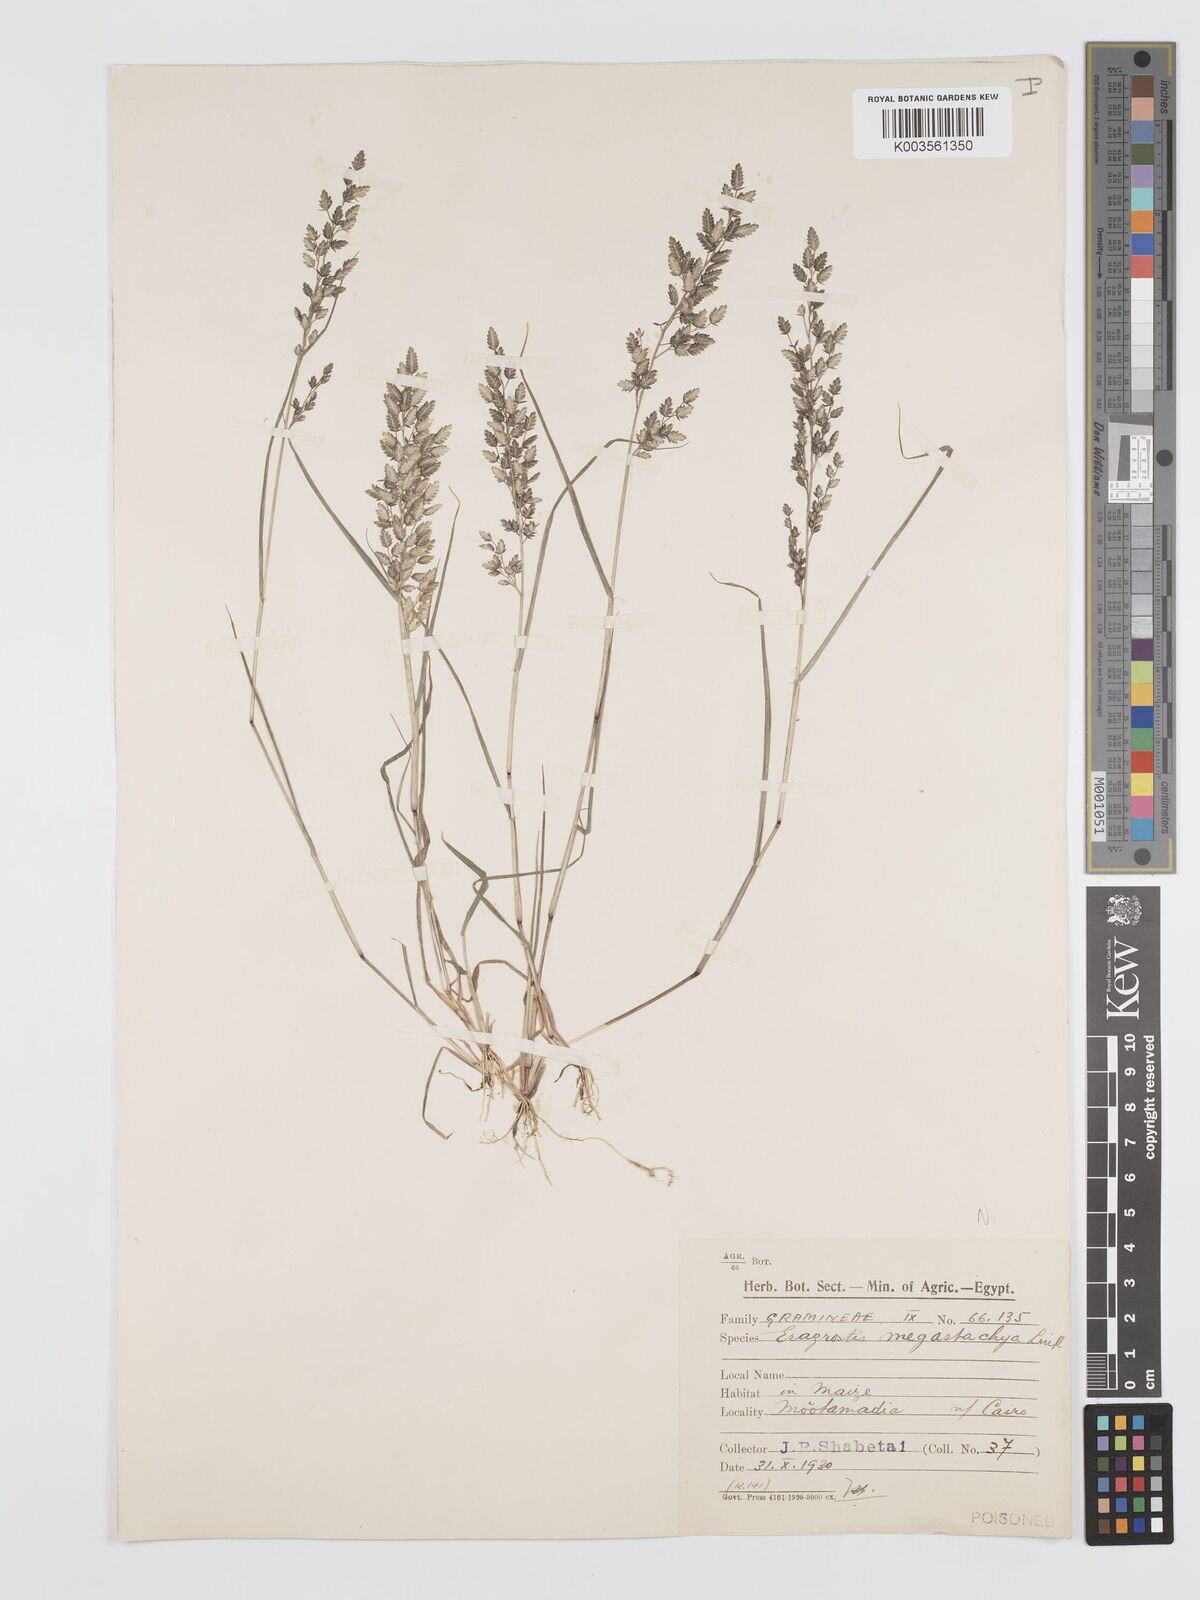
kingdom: Plantae
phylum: Tracheophyta
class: Liliopsida
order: Poales
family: Poaceae
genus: Eragrostis
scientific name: Eragrostis cilianensis
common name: Stinkgrass
